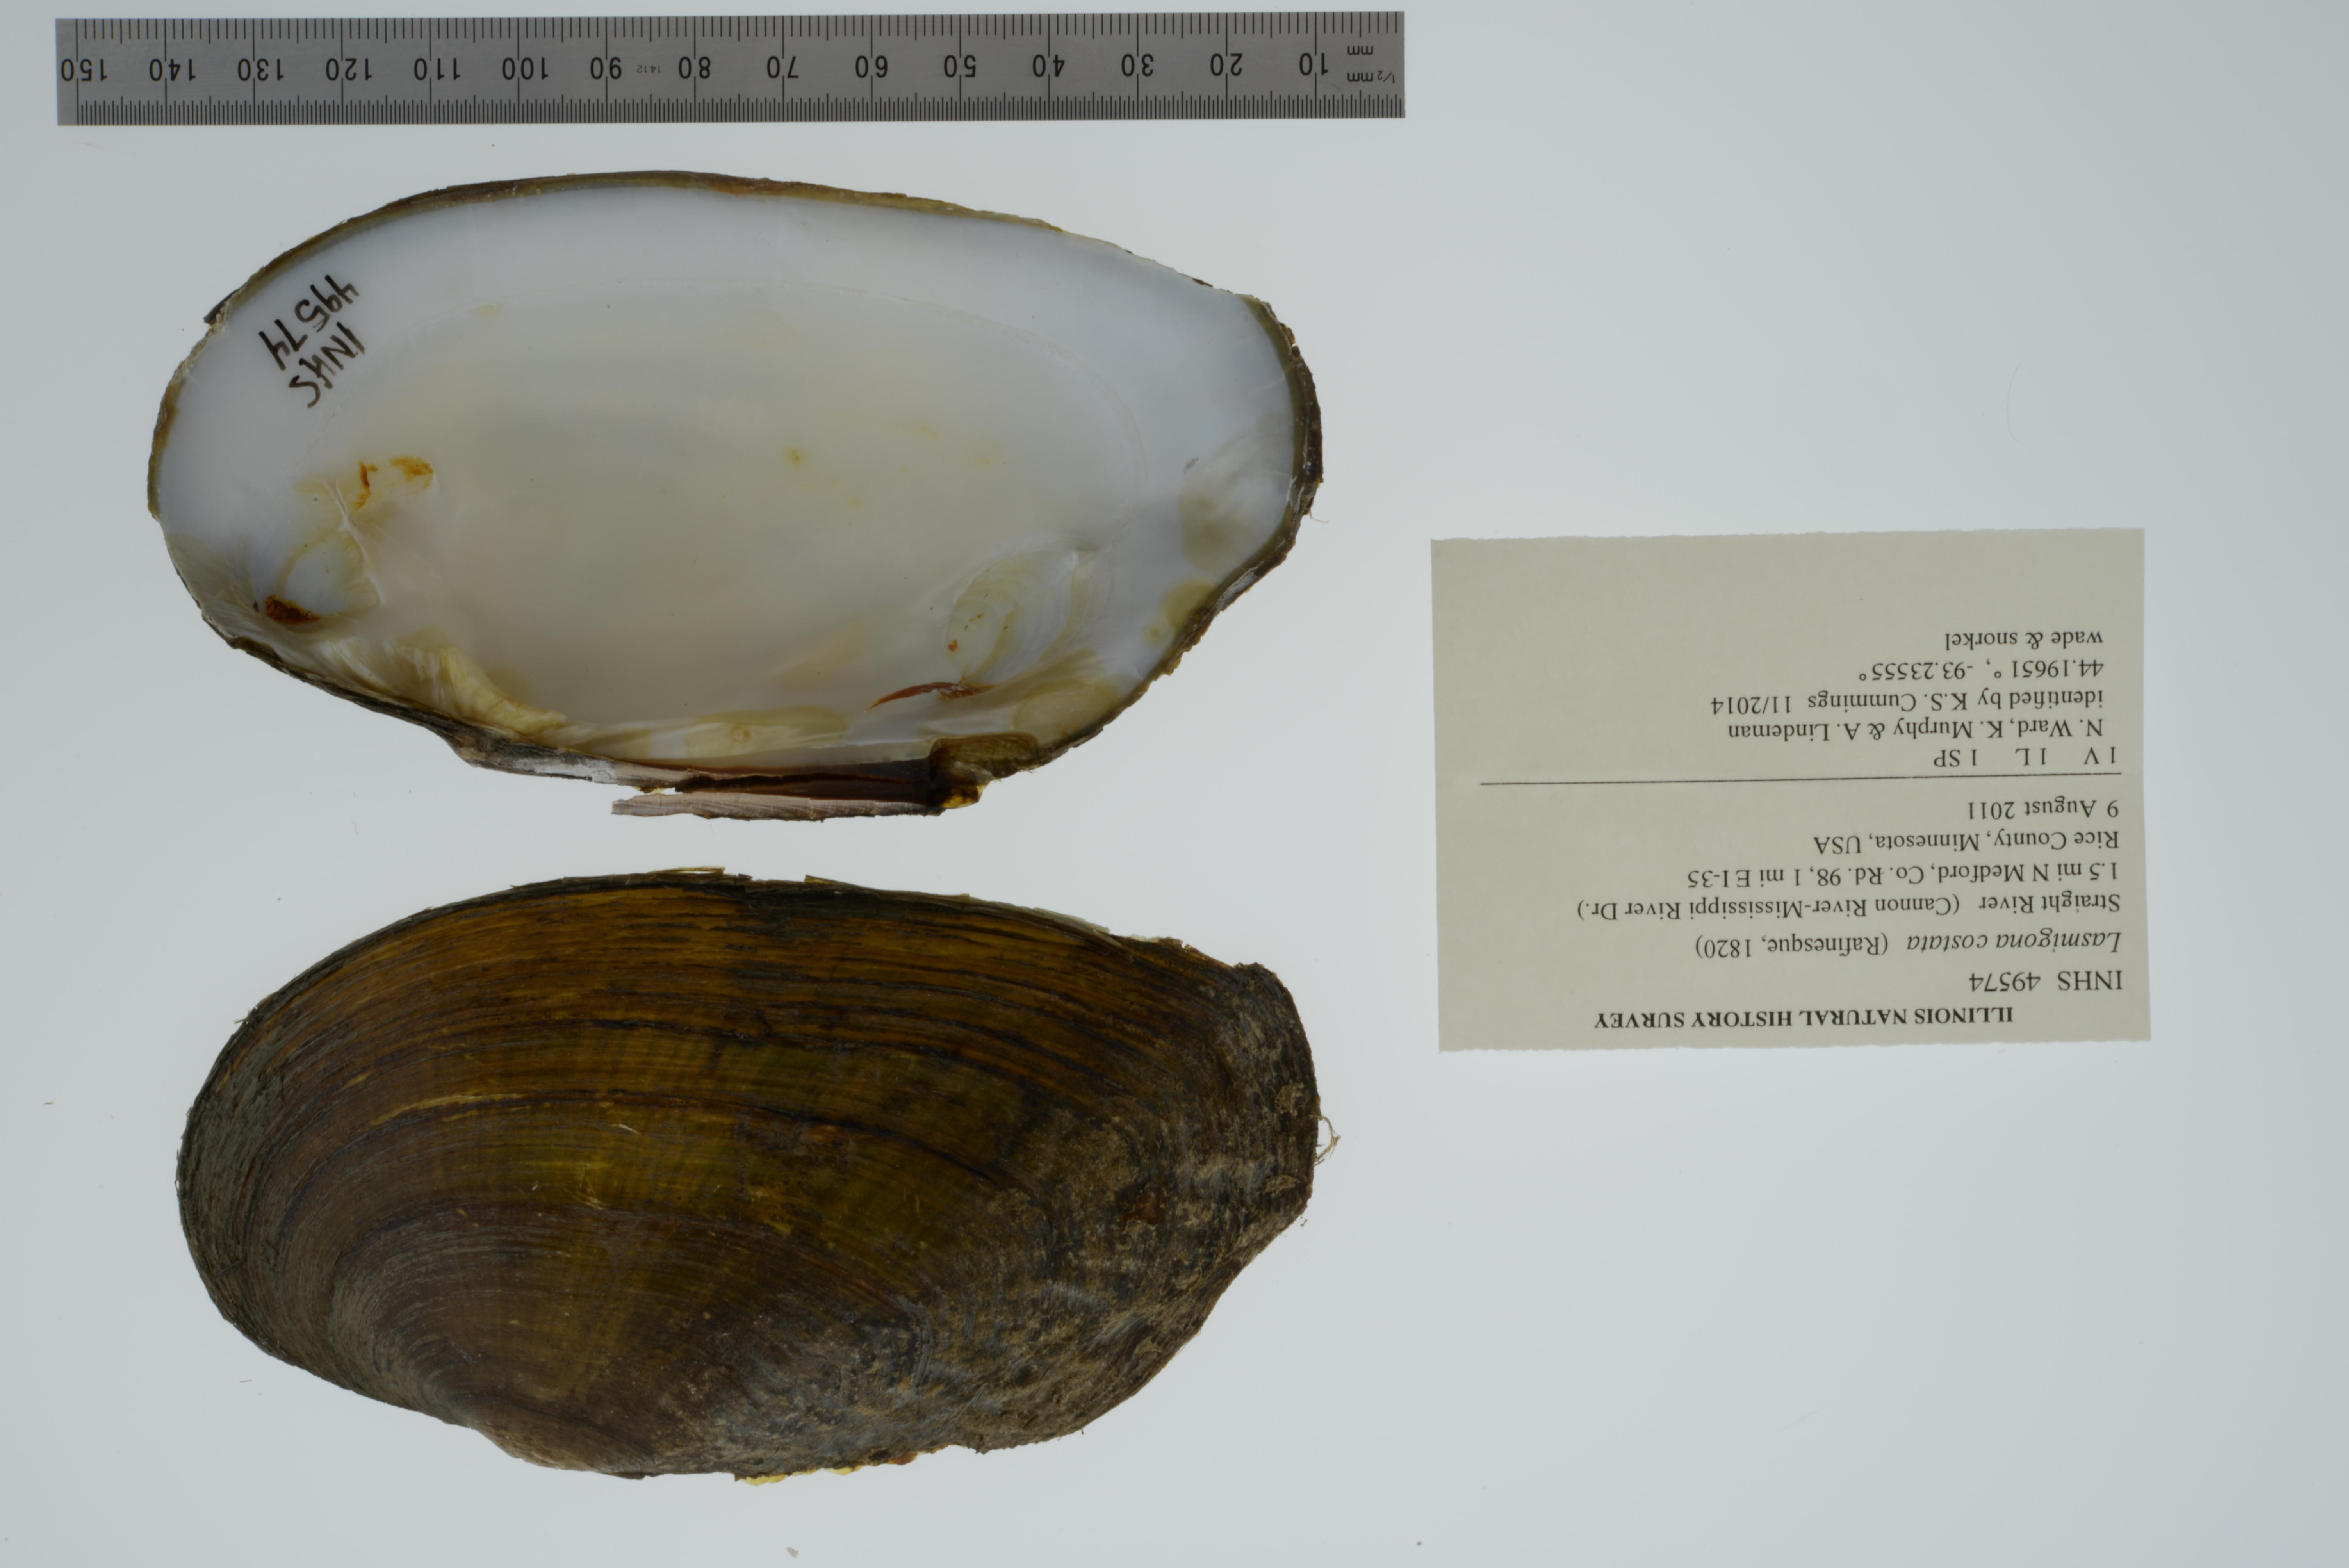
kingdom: Animalia
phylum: Mollusca
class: Bivalvia
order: Unionida
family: Unionidae
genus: Lasmigona
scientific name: Lasmigona costata
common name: Flutedshell
